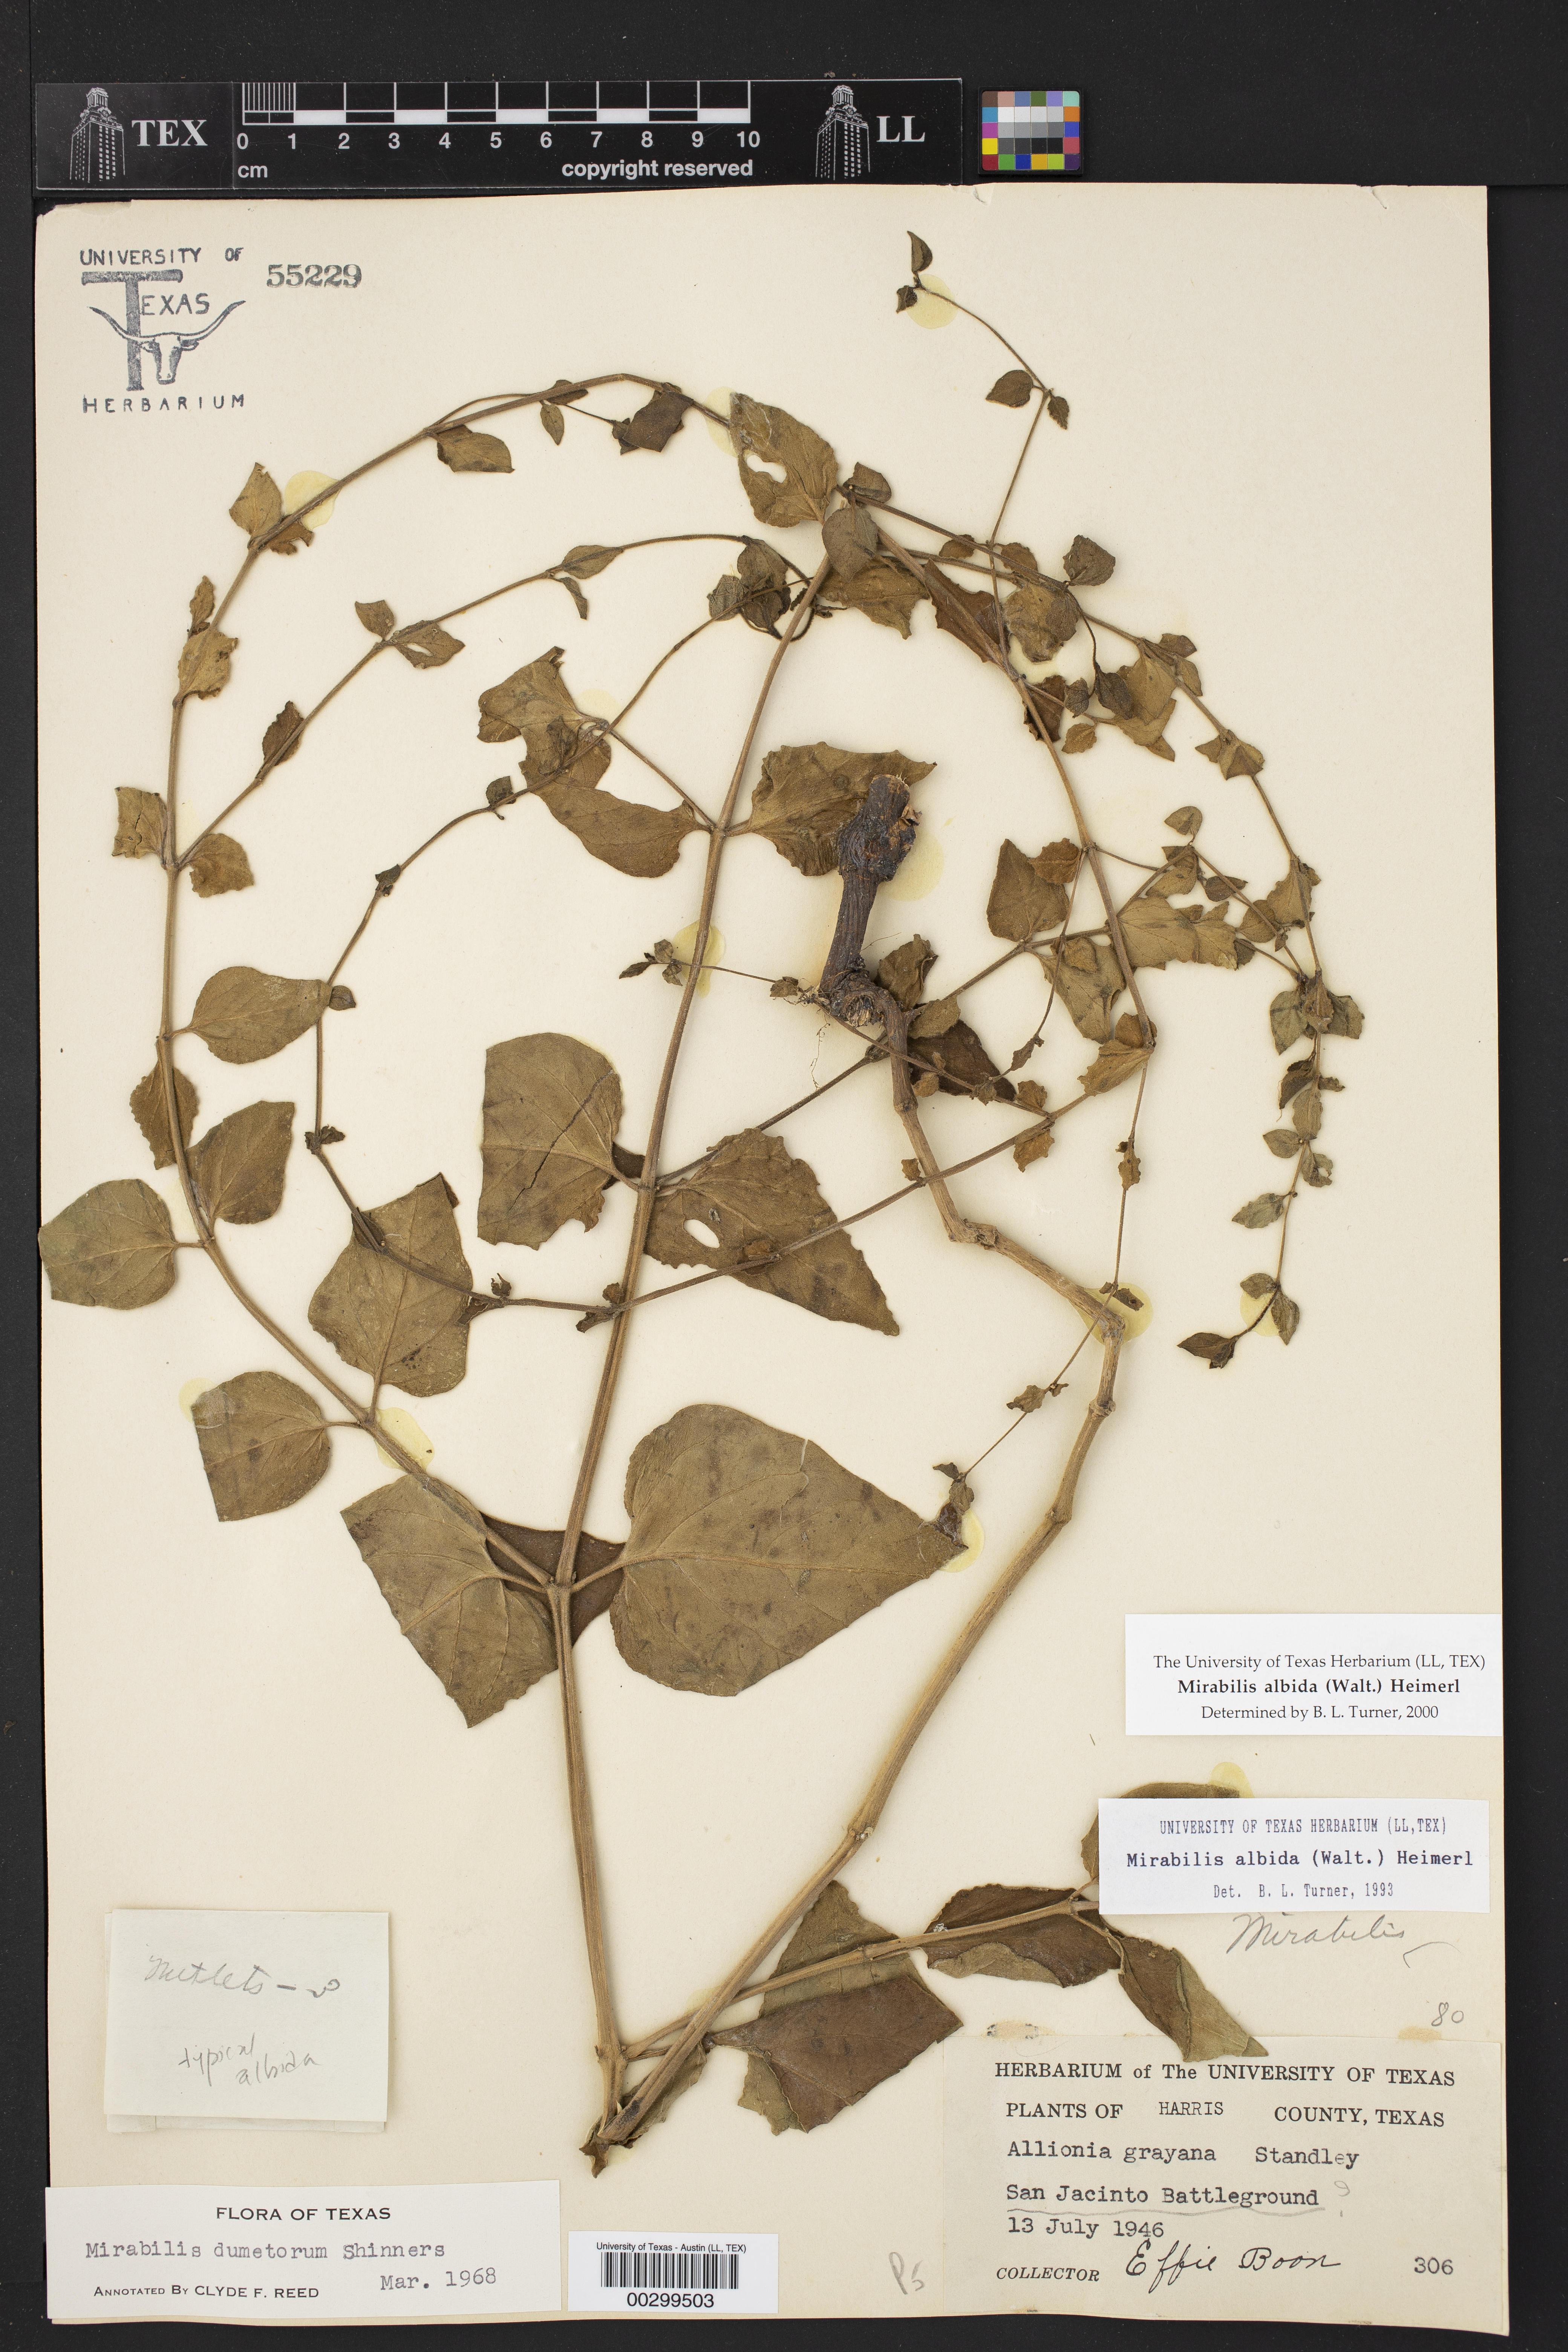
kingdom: Plantae
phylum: Tracheophyta
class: Magnoliopsida
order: Caryophyllales
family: Nyctaginaceae
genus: Mirabilis
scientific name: Mirabilis albida
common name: Hairy four-o'clock
